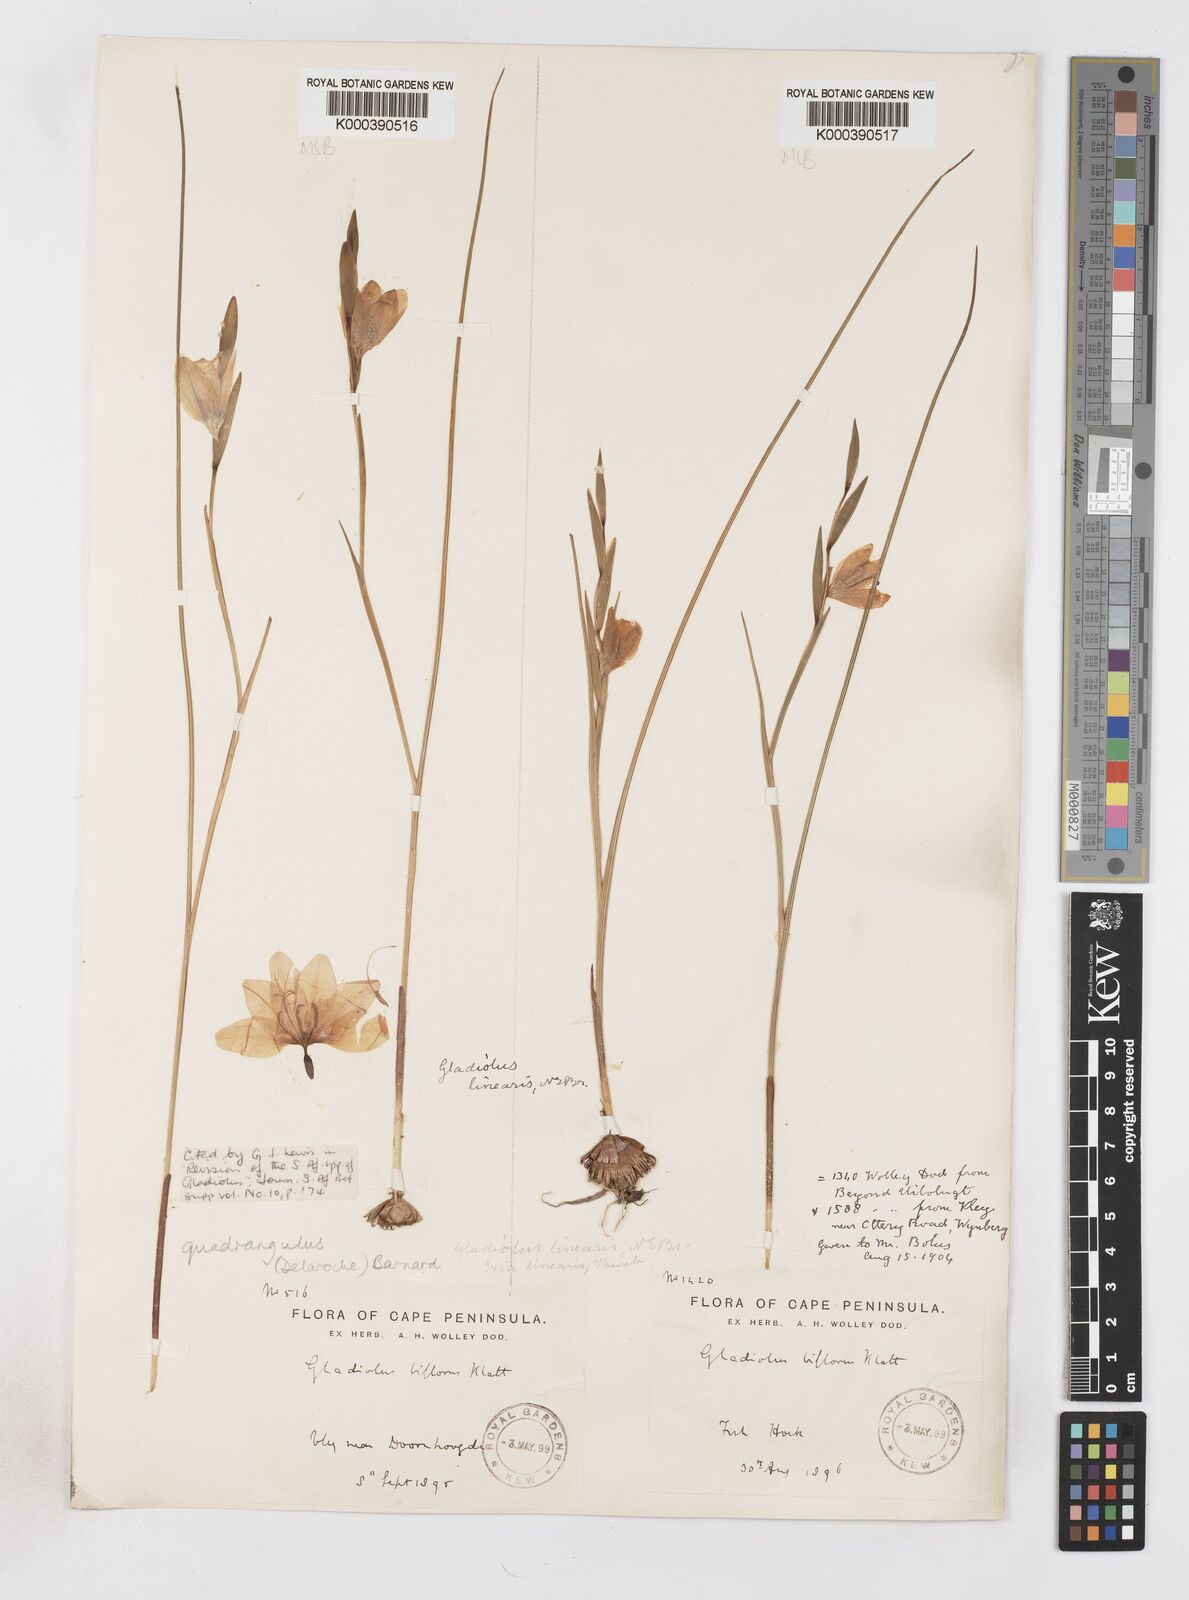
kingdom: Plantae
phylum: Tracheophyta
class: Liliopsida
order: Asparagales
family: Iridaceae
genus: Gladiolus
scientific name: Gladiolus quadrangulus
